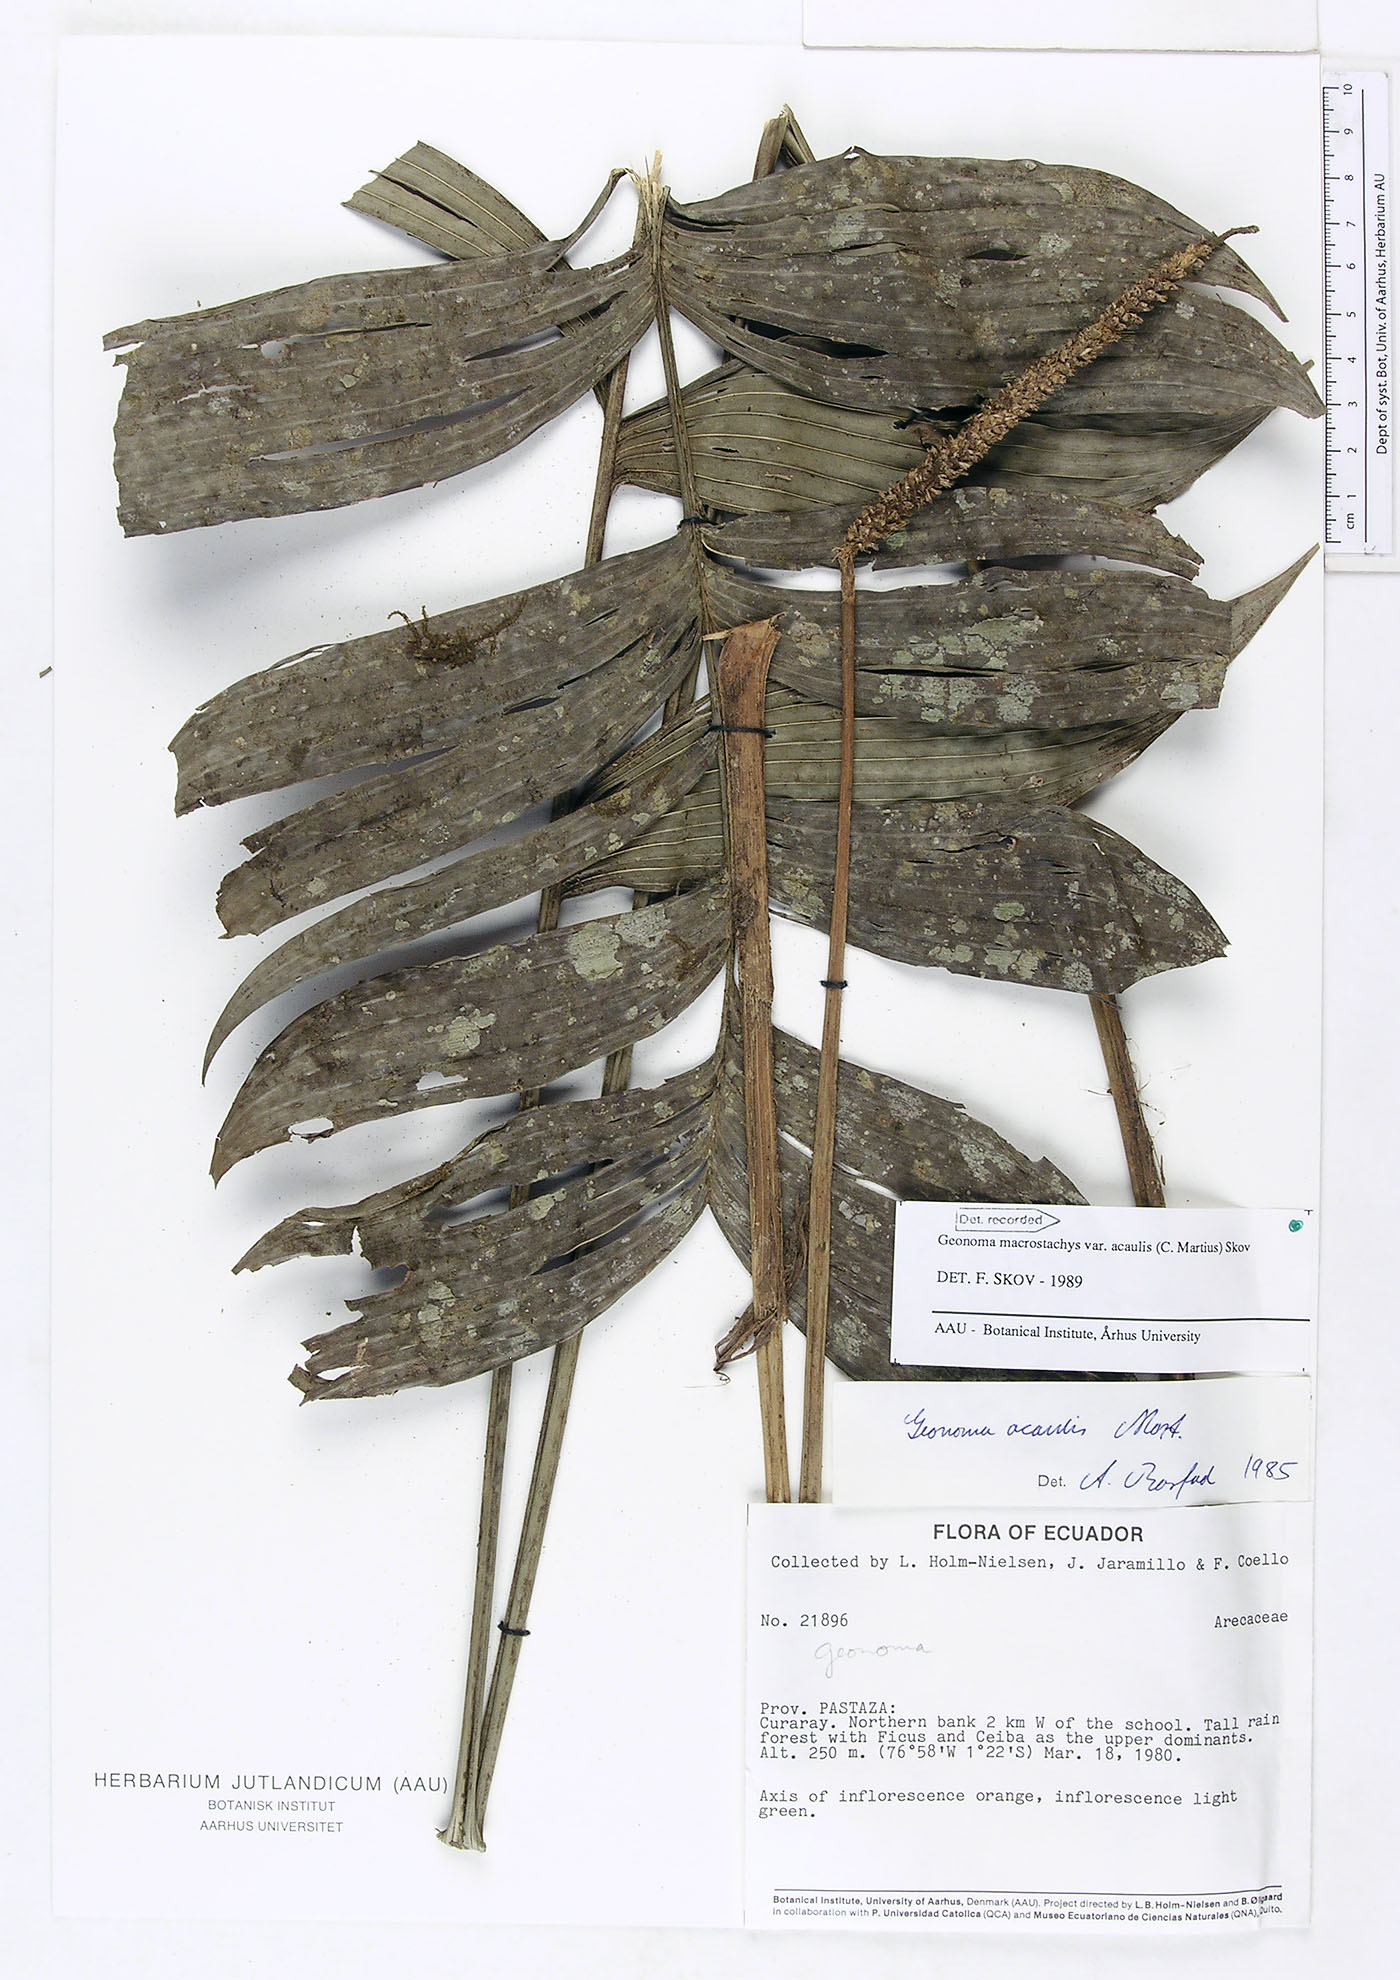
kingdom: Plantae
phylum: Tracheophyta
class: Liliopsida
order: Arecales
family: Arecaceae
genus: Geonoma
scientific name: Geonoma macrostachys
